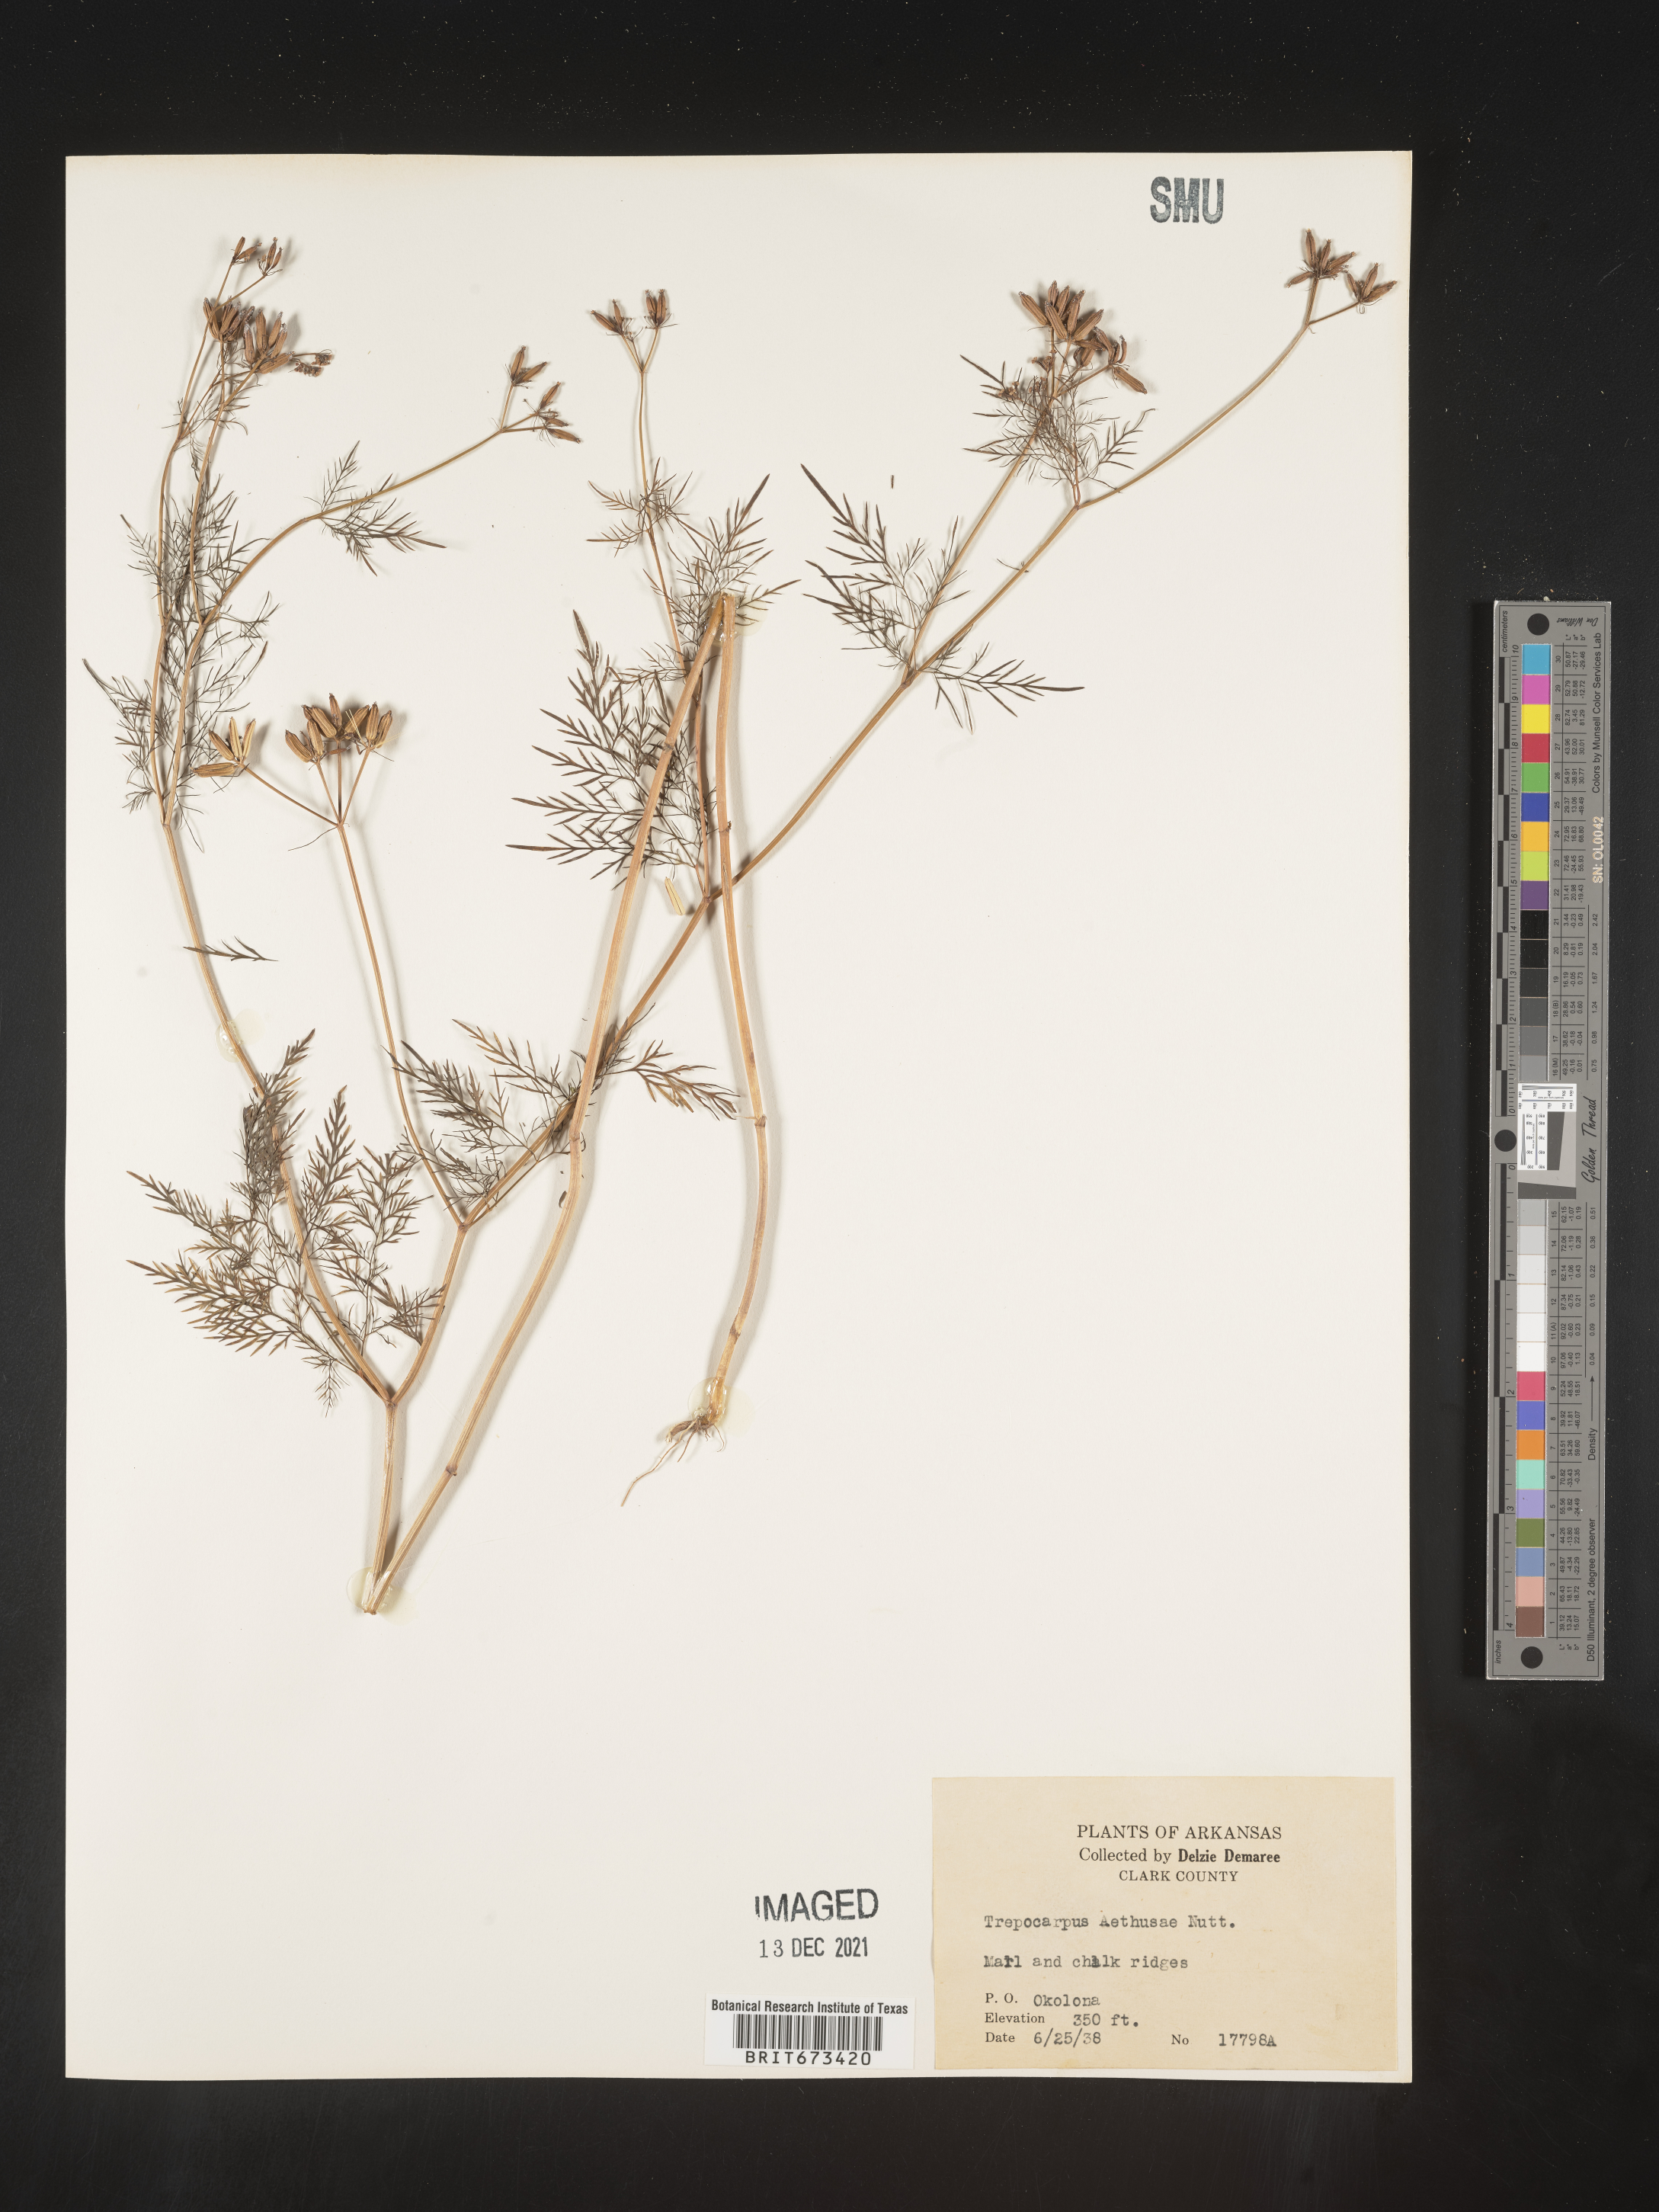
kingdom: Plantae
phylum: Tracheophyta
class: Magnoliopsida
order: Apiales
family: Apiaceae
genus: Trepocarpus
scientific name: Trepocarpus aethusae
